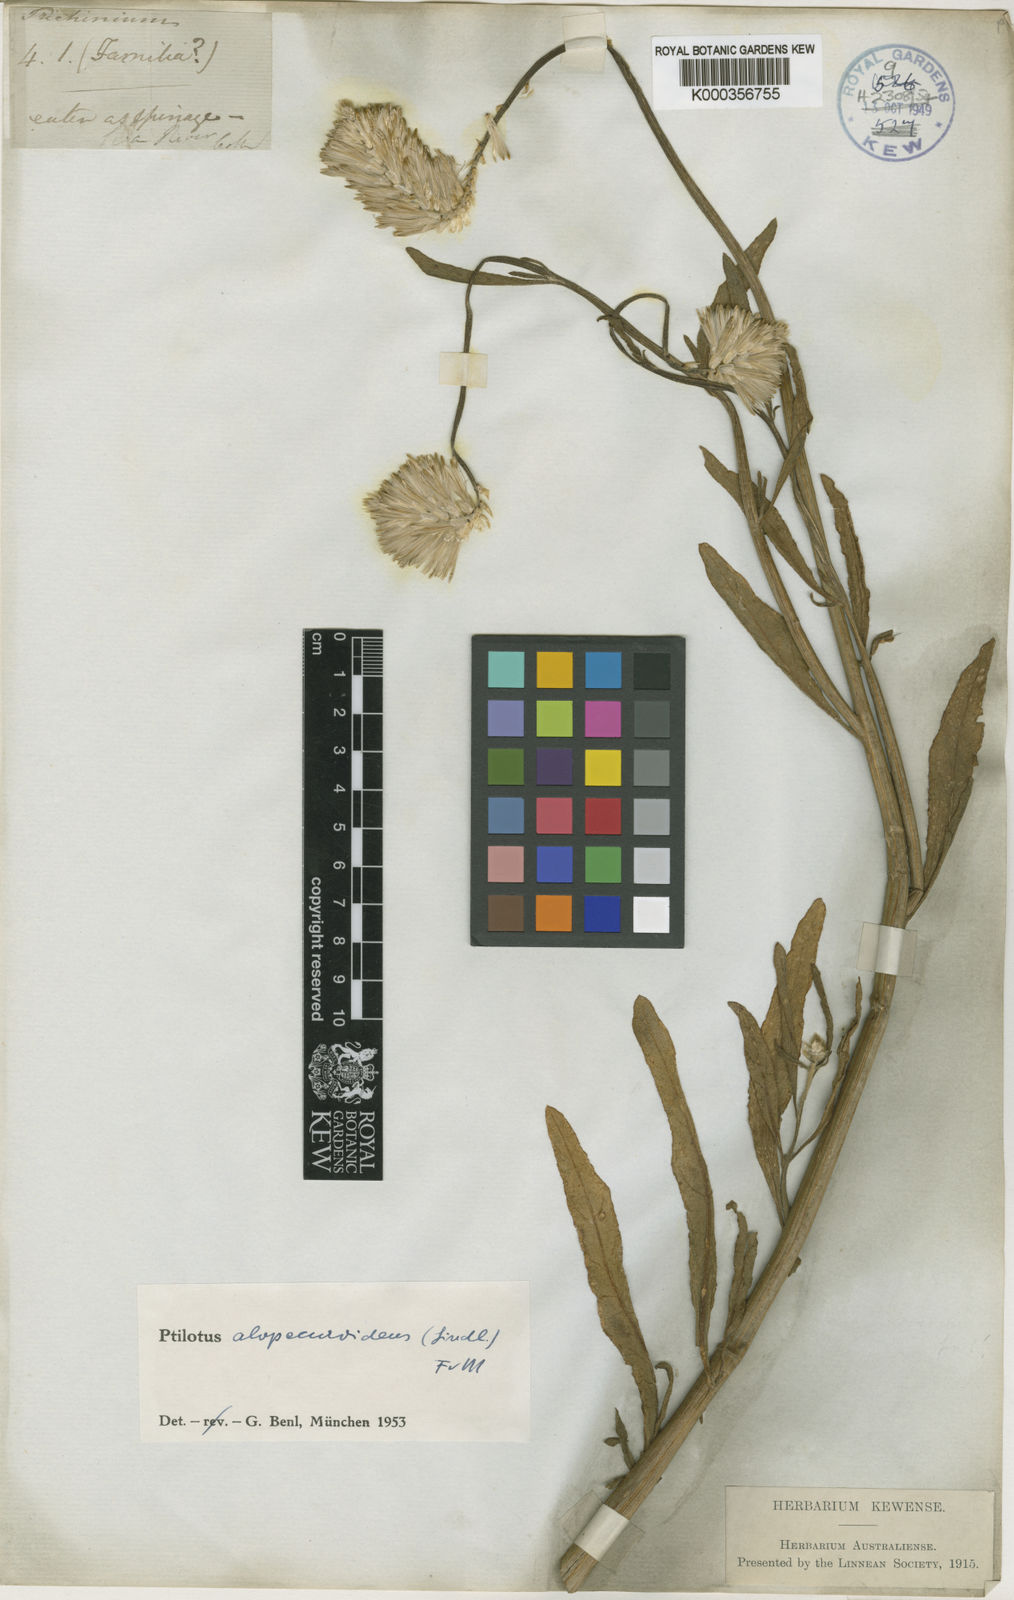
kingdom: Plantae
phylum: Tracheophyta
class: Magnoliopsida
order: Caryophyllales
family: Amaranthaceae
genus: Ptilotus
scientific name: Ptilotus polystachyus
